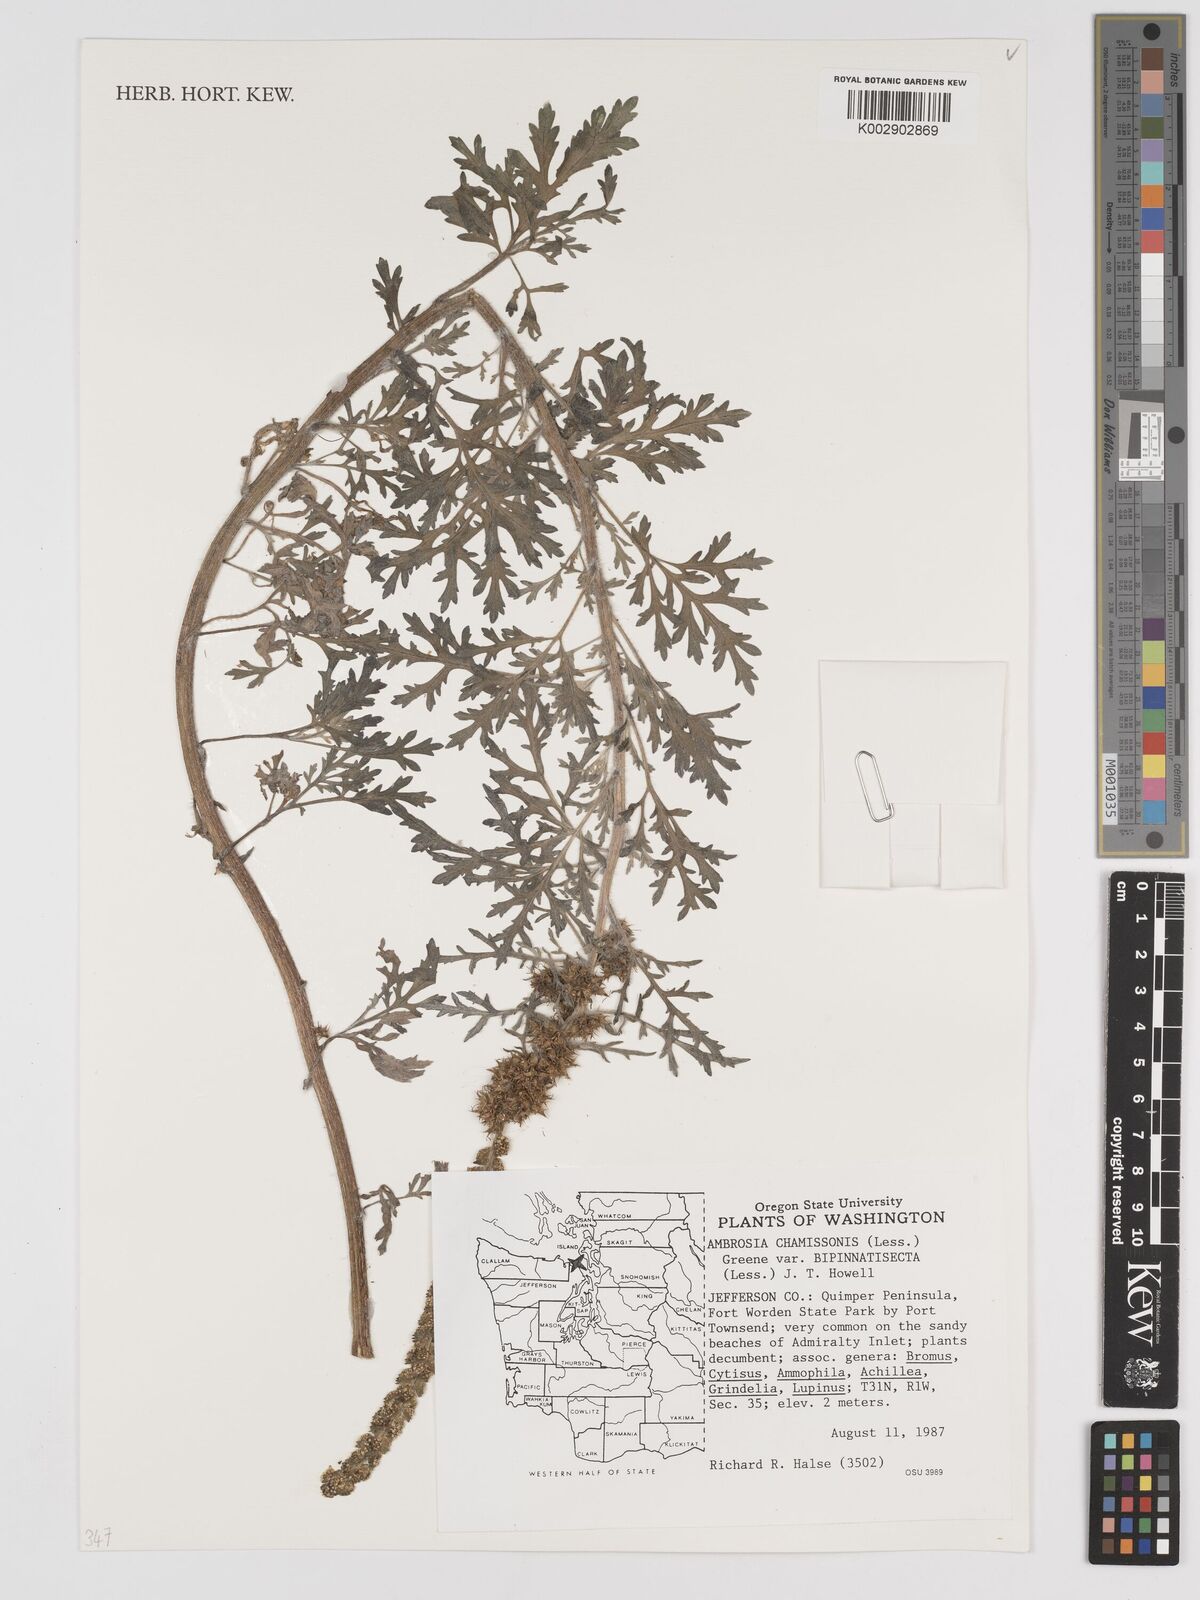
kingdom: Plantae
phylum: Tracheophyta
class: Magnoliopsida
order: Asterales
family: Asteraceae
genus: Ambrosia
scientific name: Ambrosia chamissonis
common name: Beachbur
